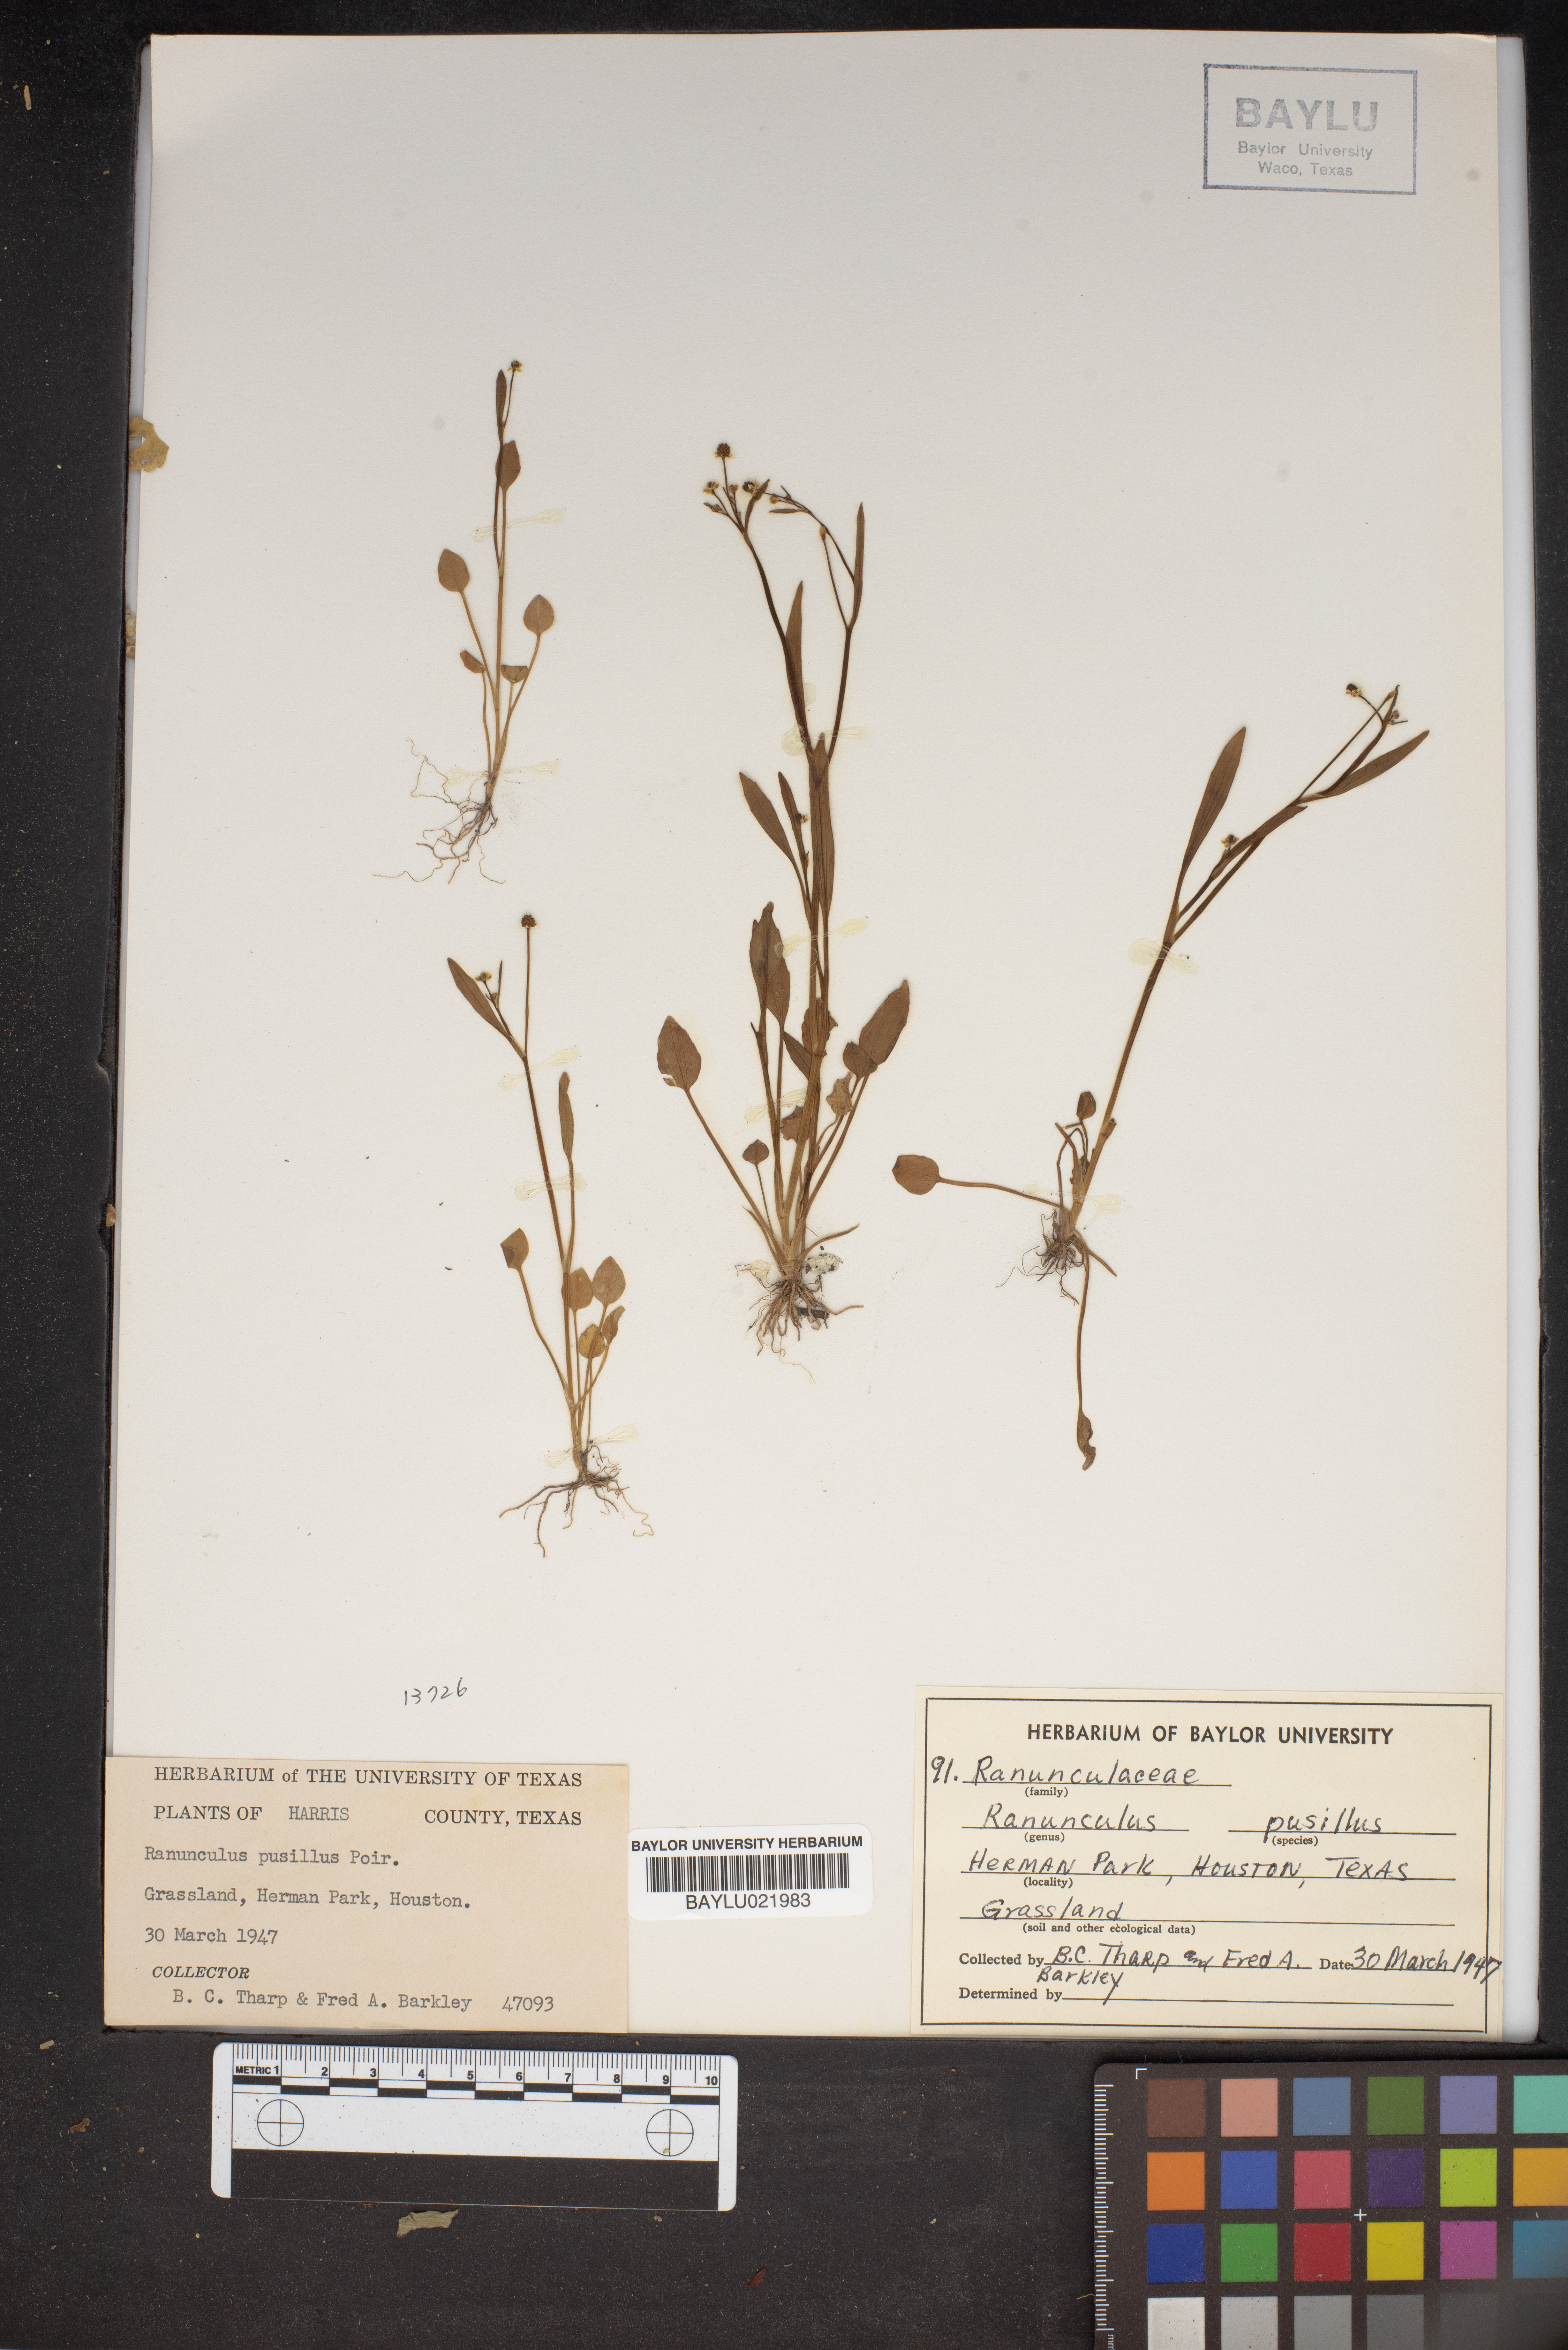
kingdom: Plantae
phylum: Tracheophyta
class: Magnoliopsida
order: Ranunculales
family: Ranunculaceae
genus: Ranunculus
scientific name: Ranunculus pusillus
